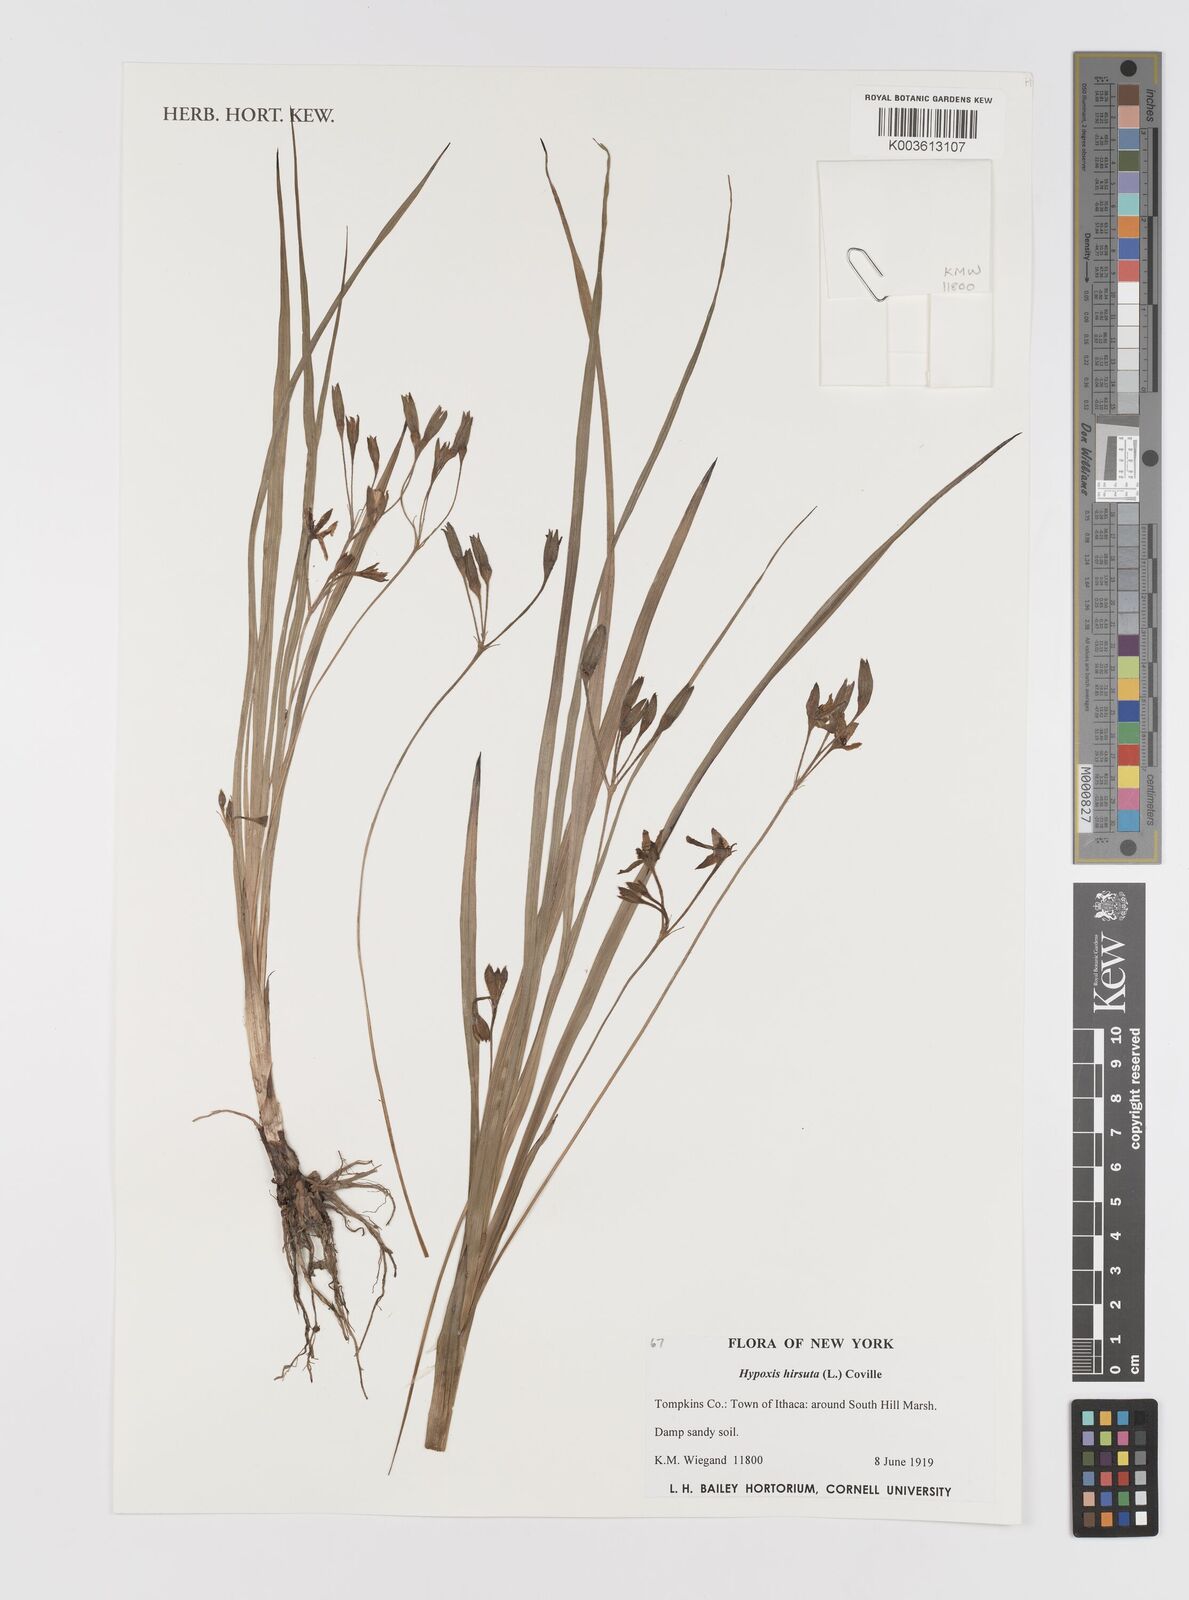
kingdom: Plantae
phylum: Tracheophyta
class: Liliopsida
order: Asparagales
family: Hypoxidaceae
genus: Hypoxis
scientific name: Hypoxis hirsuta
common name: Common goldstar
